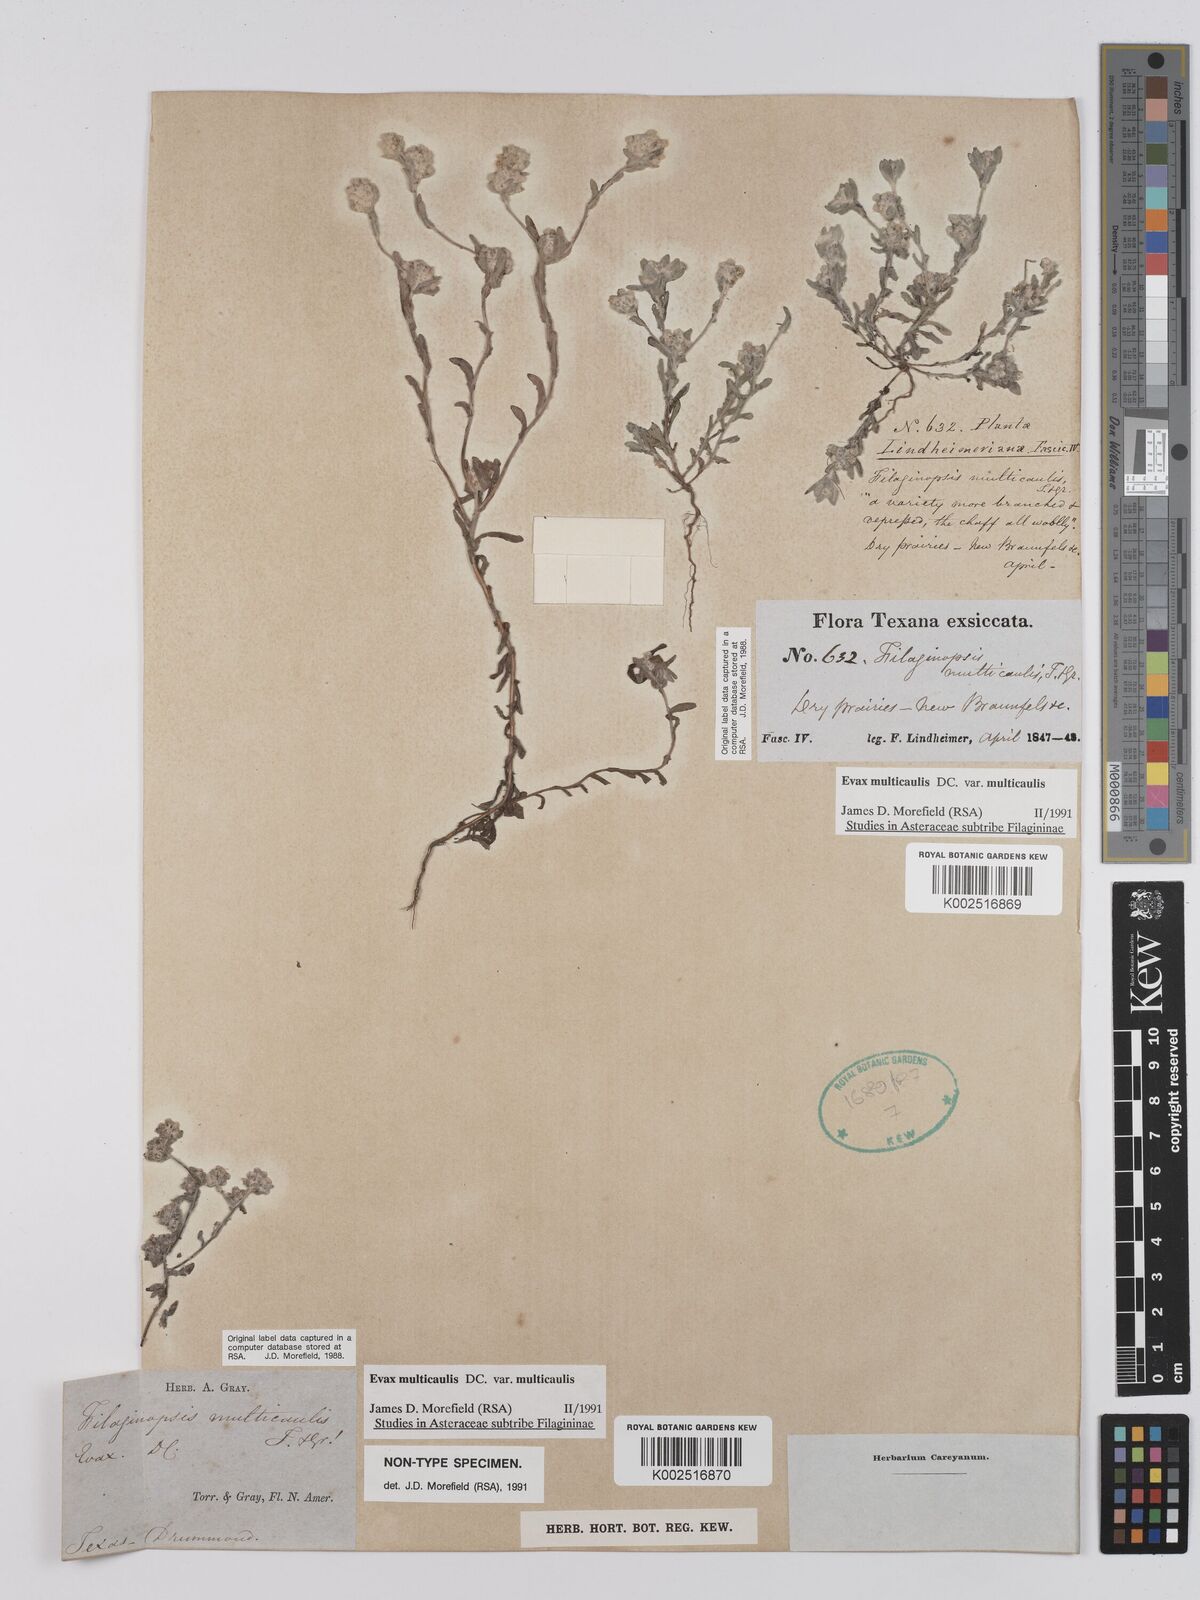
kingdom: Plantae
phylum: Tracheophyta
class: Magnoliopsida
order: Asterales
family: Asteraceae
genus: Filago
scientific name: Filago
